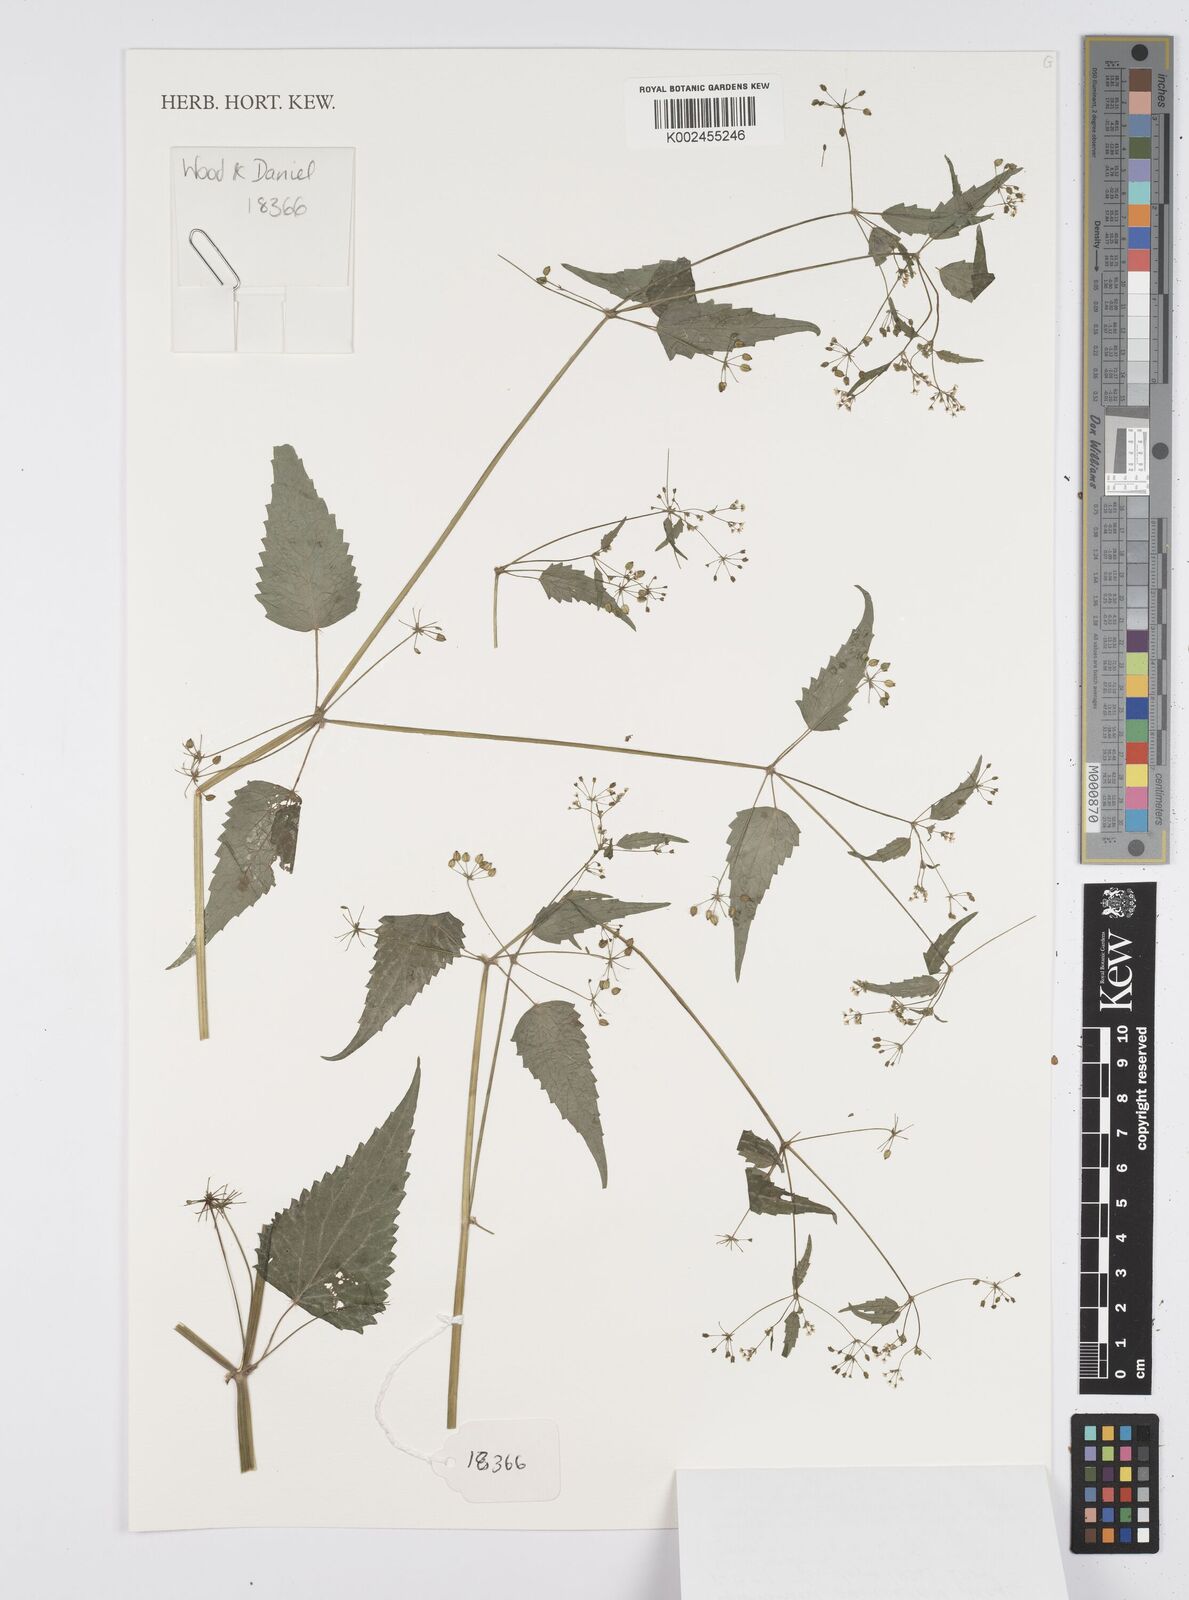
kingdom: Plantae
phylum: Tracheophyta
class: Magnoliopsida
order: Apiales
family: Apiaceae
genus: Azorella
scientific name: Azorella
